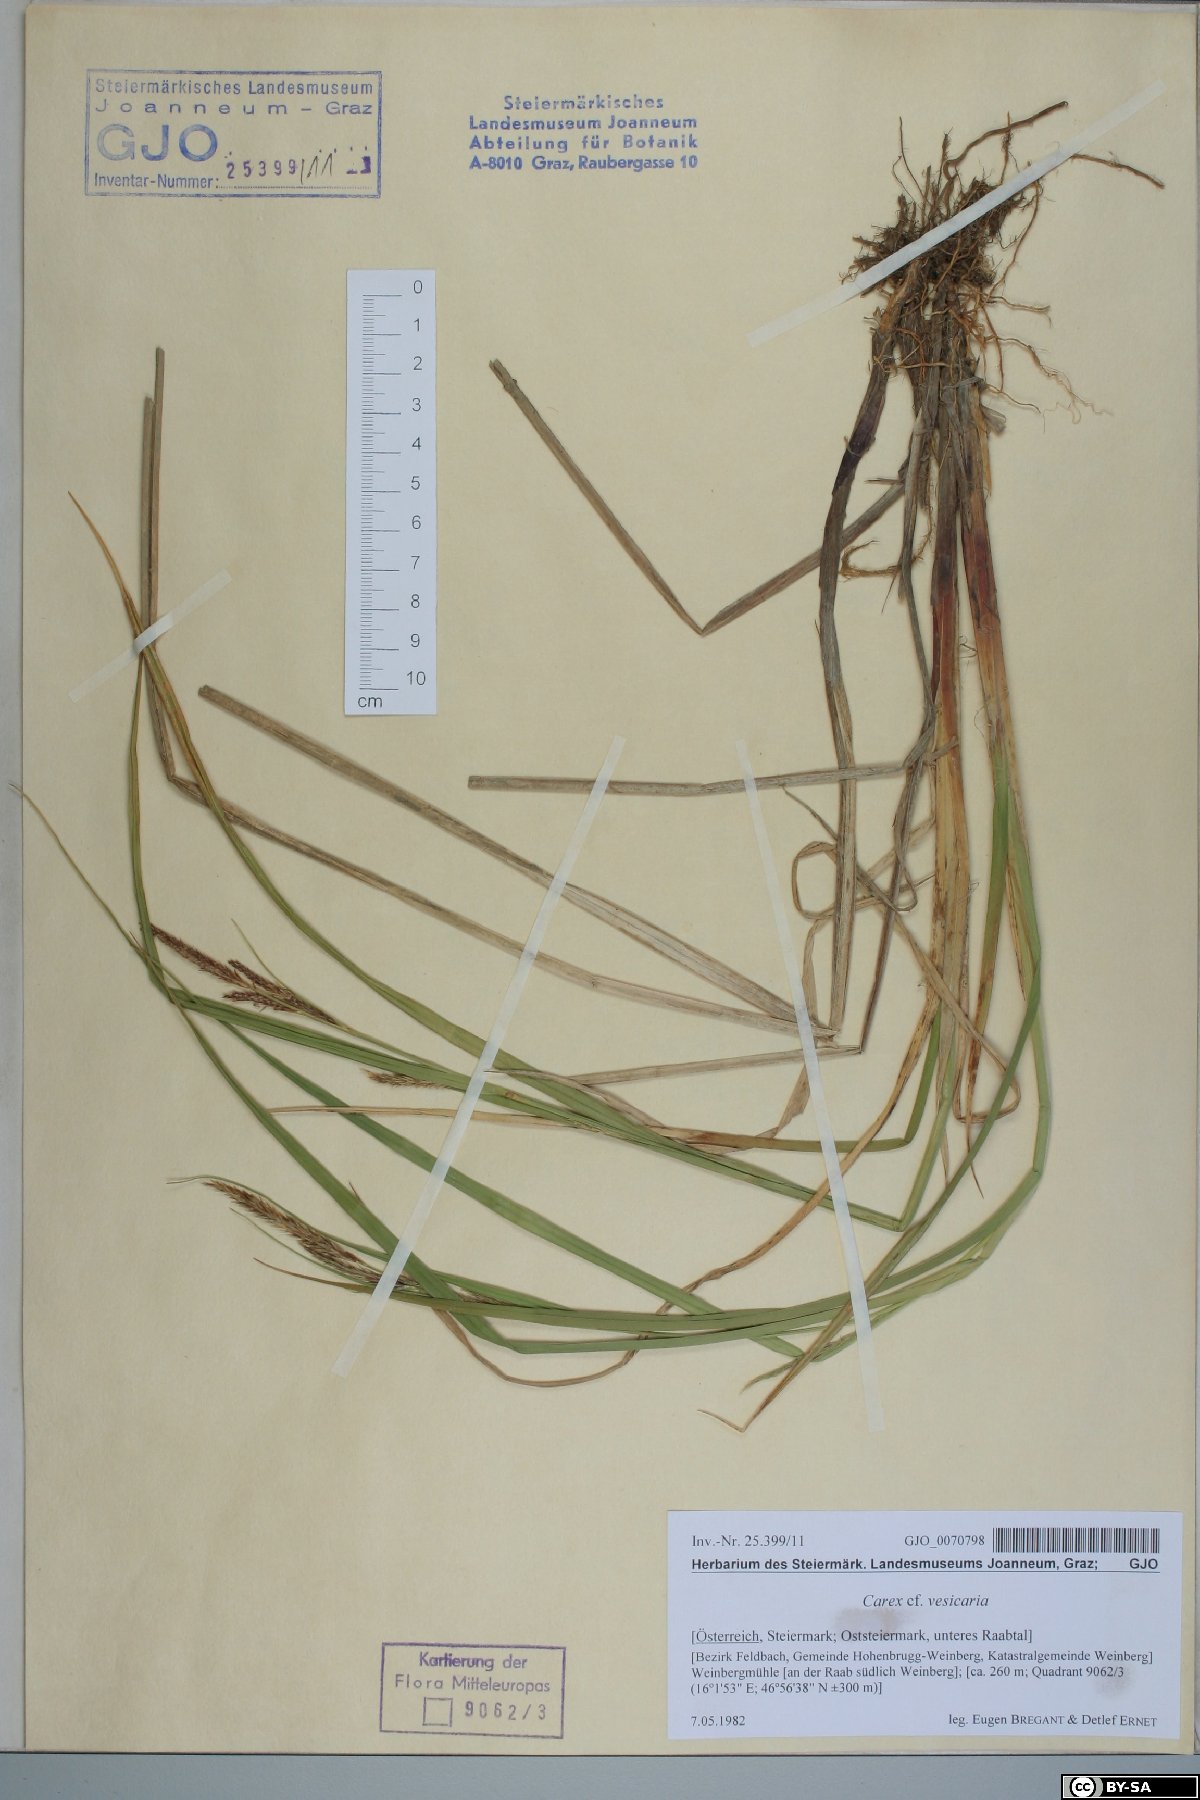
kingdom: Plantae
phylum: Tracheophyta
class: Liliopsida
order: Poales
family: Cyperaceae
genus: Carex
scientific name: Carex vesicaria
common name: Bladder-sedge
